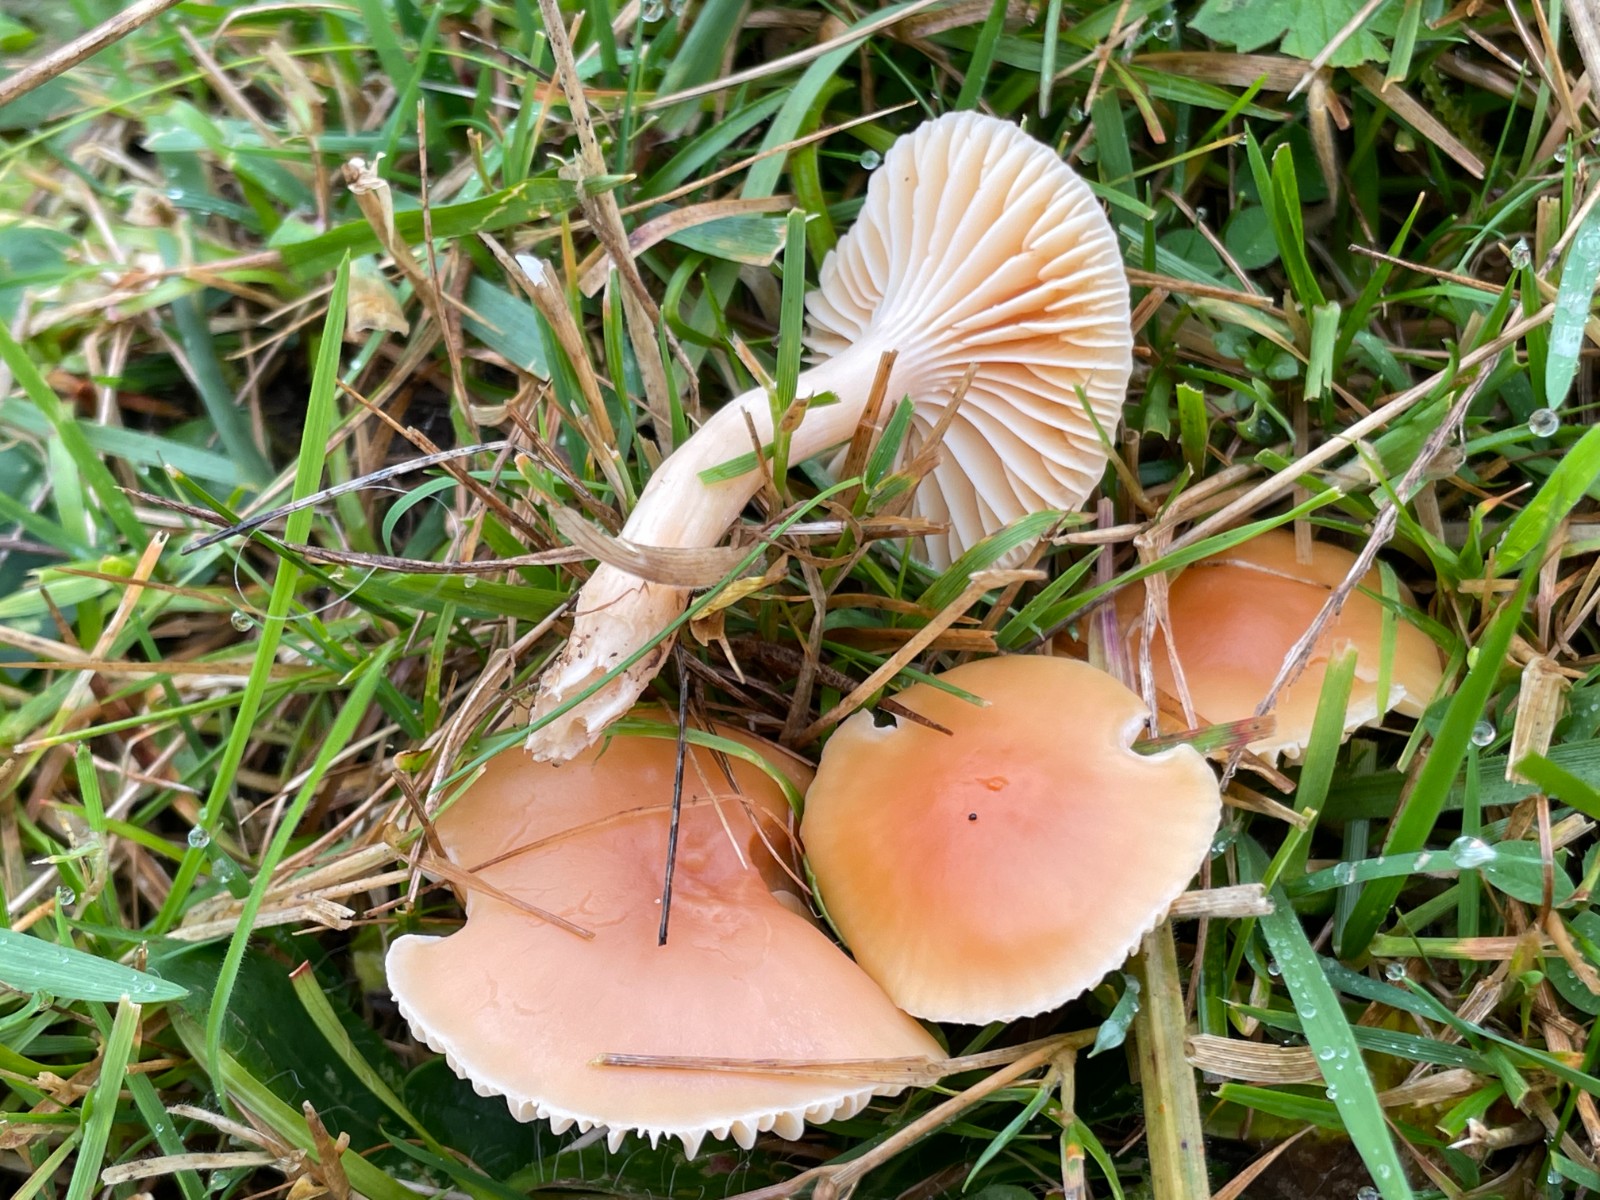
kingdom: Fungi
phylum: Basidiomycota
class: Agaricomycetes
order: Agaricales
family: Hygrophoraceae
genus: Cuphophyllus
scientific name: Cuphophyllus pratensis
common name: eng-vokshat
